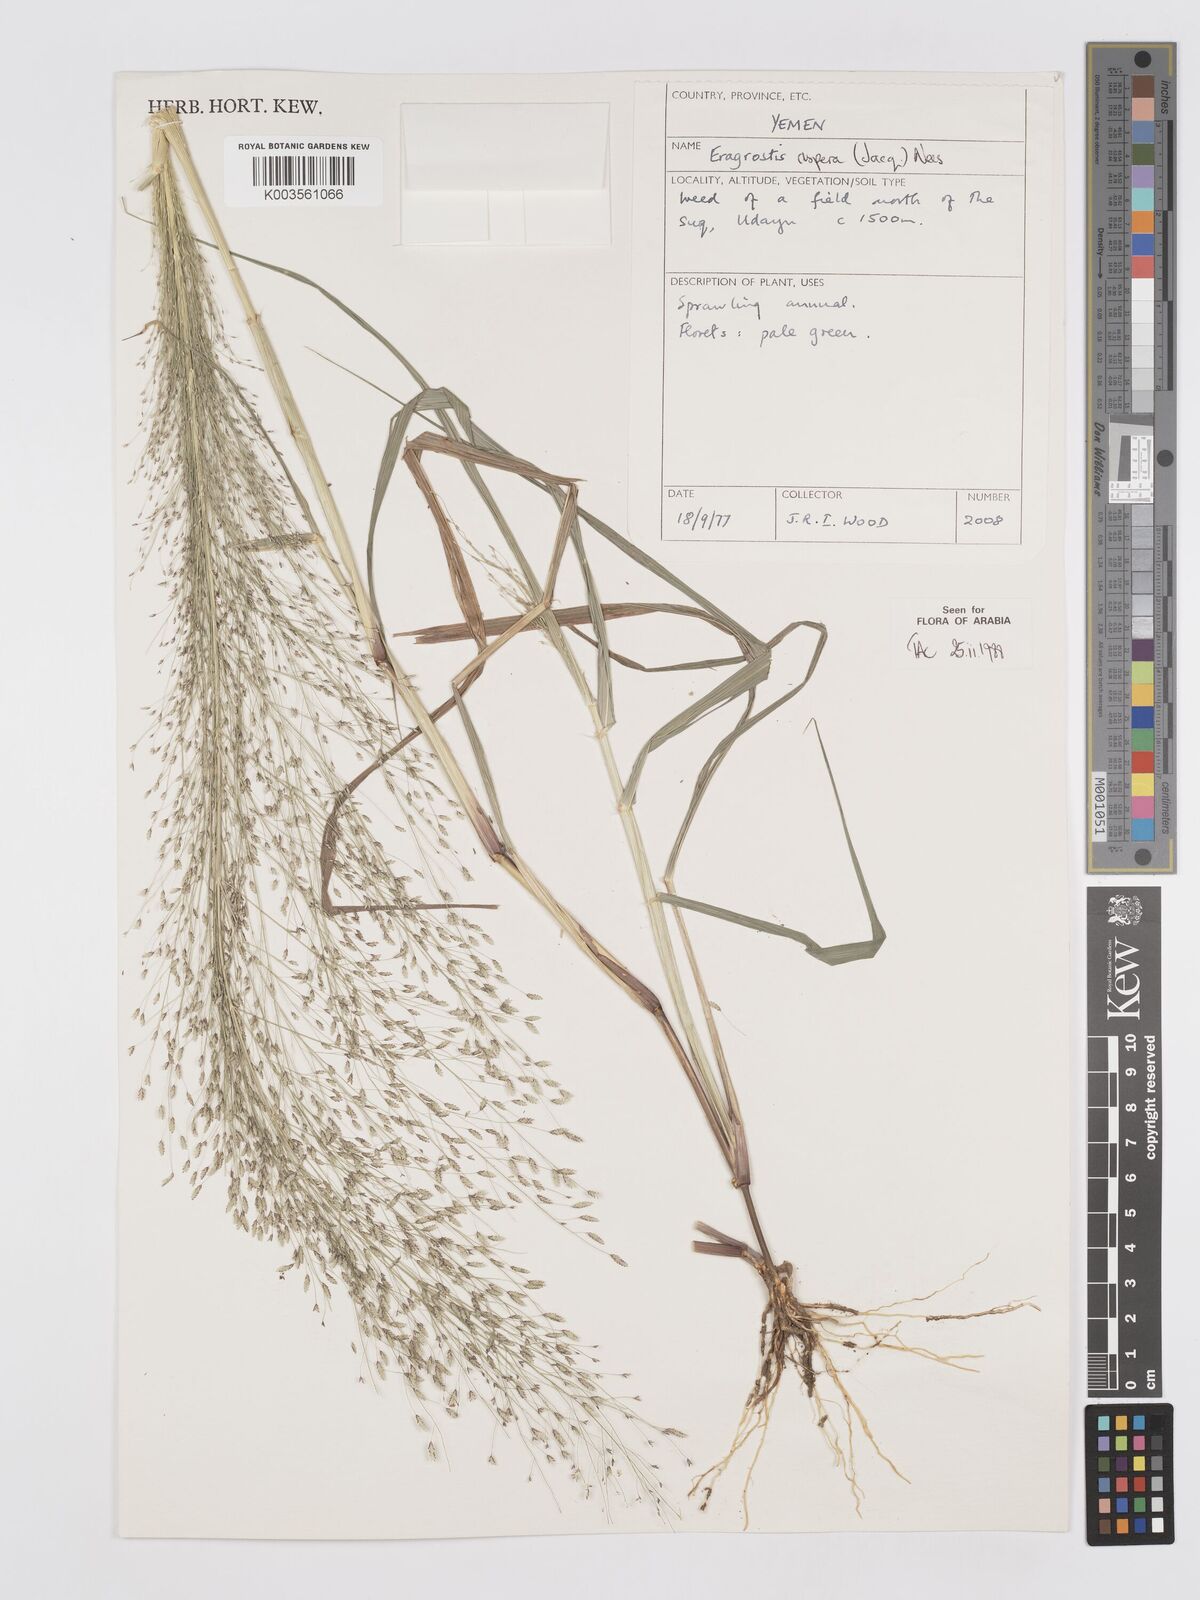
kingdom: Plantae
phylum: Tracheophyta
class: Liliopsida
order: Poales
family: Poaceae
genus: Eragrostis
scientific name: Eragrostis aspera
